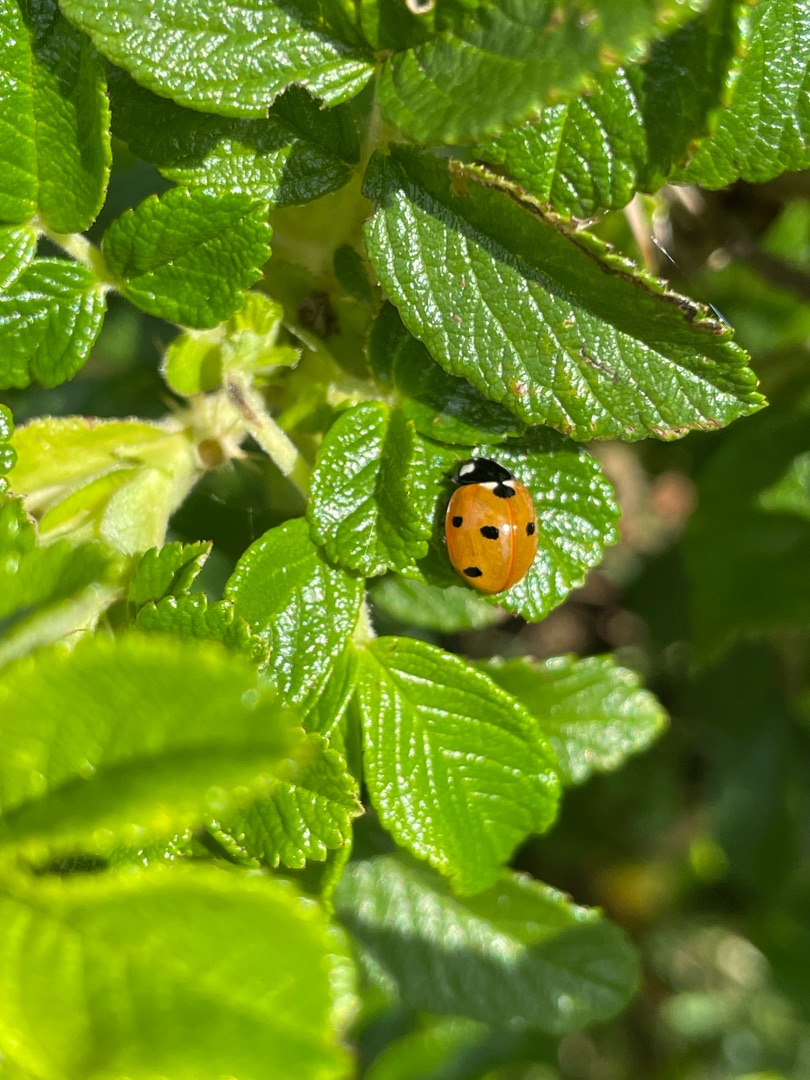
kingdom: Animalia
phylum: Arthropoda
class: Insecta
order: Coleoptera
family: Coccinellidae
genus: Coccinella
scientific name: Coccinella septempunctata
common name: Syvplettet mariehøne
